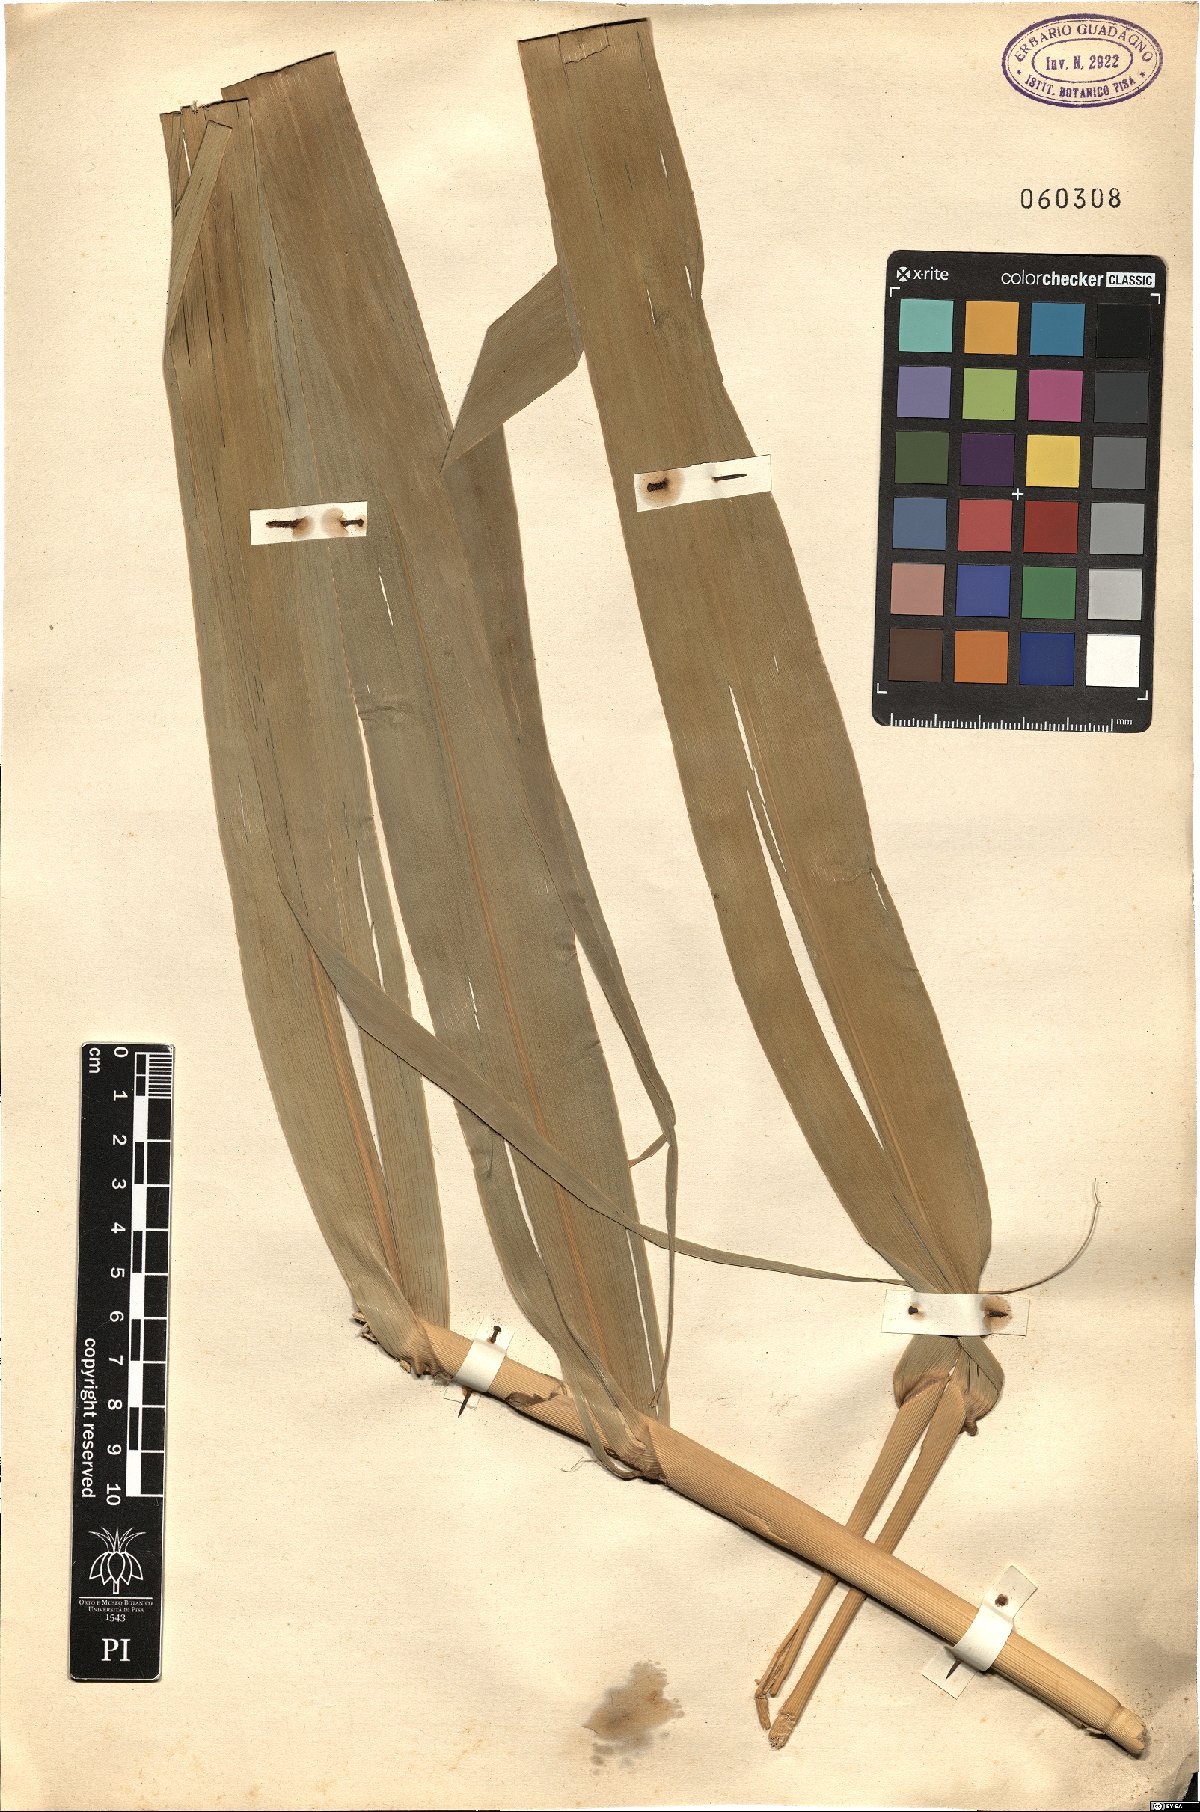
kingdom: Plantae
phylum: Tracheophyta
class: Liliopsida
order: Poales
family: Poaceae
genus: Arundo
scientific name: Arundo
